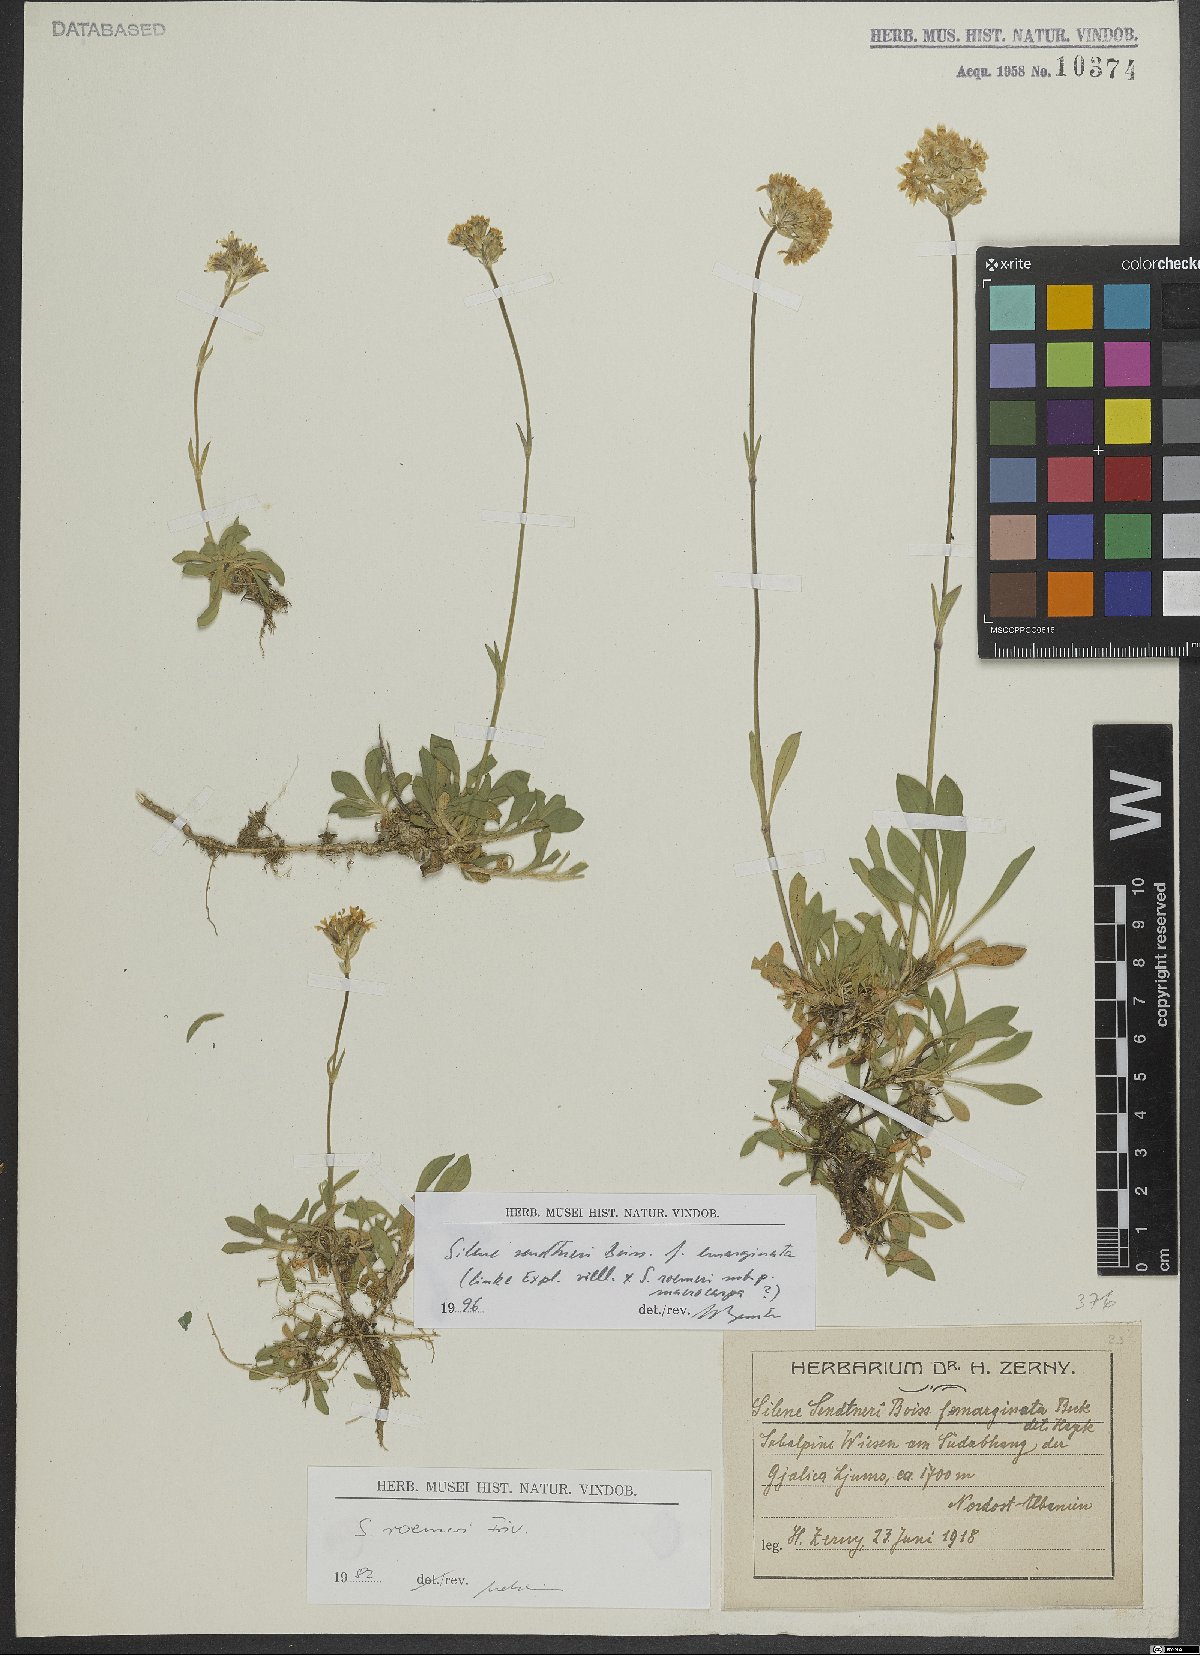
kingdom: Plantae
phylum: Tracheophyta
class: Magnoliopsida
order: Caryophyllales
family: Caryophyllaceae
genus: Silene
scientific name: Silene sendtneri
